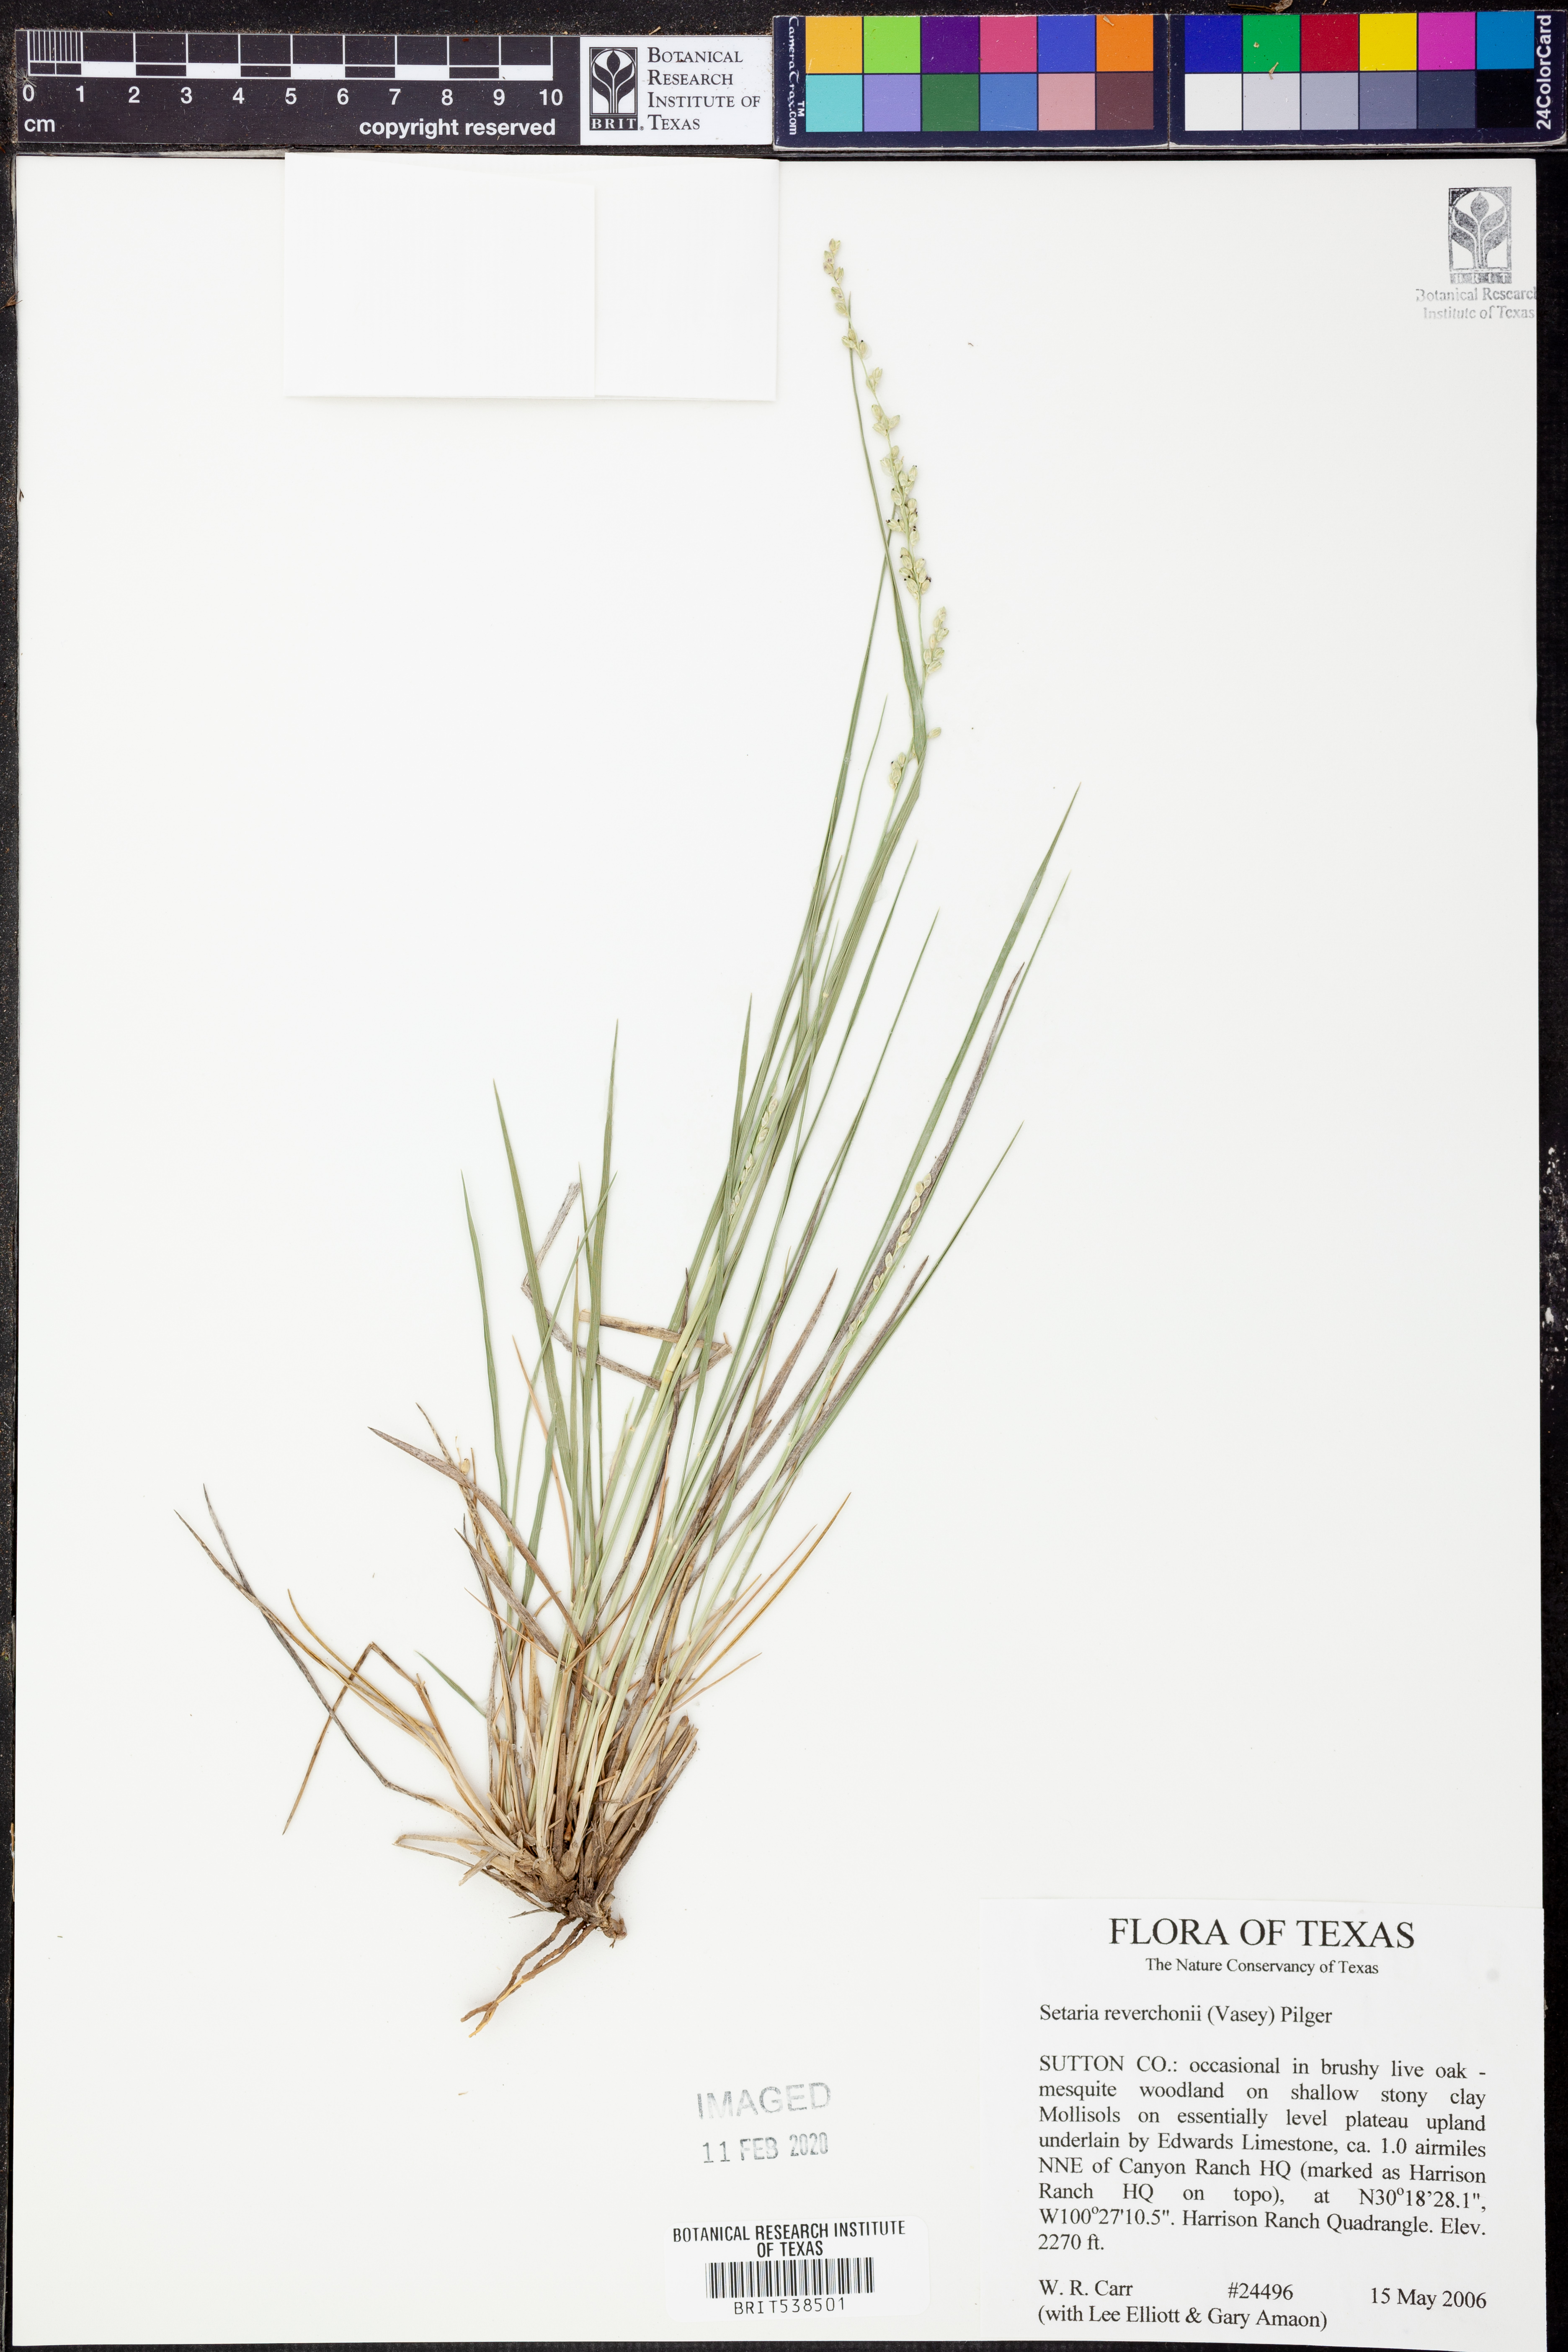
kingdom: Plantae
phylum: Tracheophyta
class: Liliopsida
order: Poales
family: Poaceae
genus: Setaria
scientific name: Setaria reverchonii
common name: Reverchon's bristle grass
